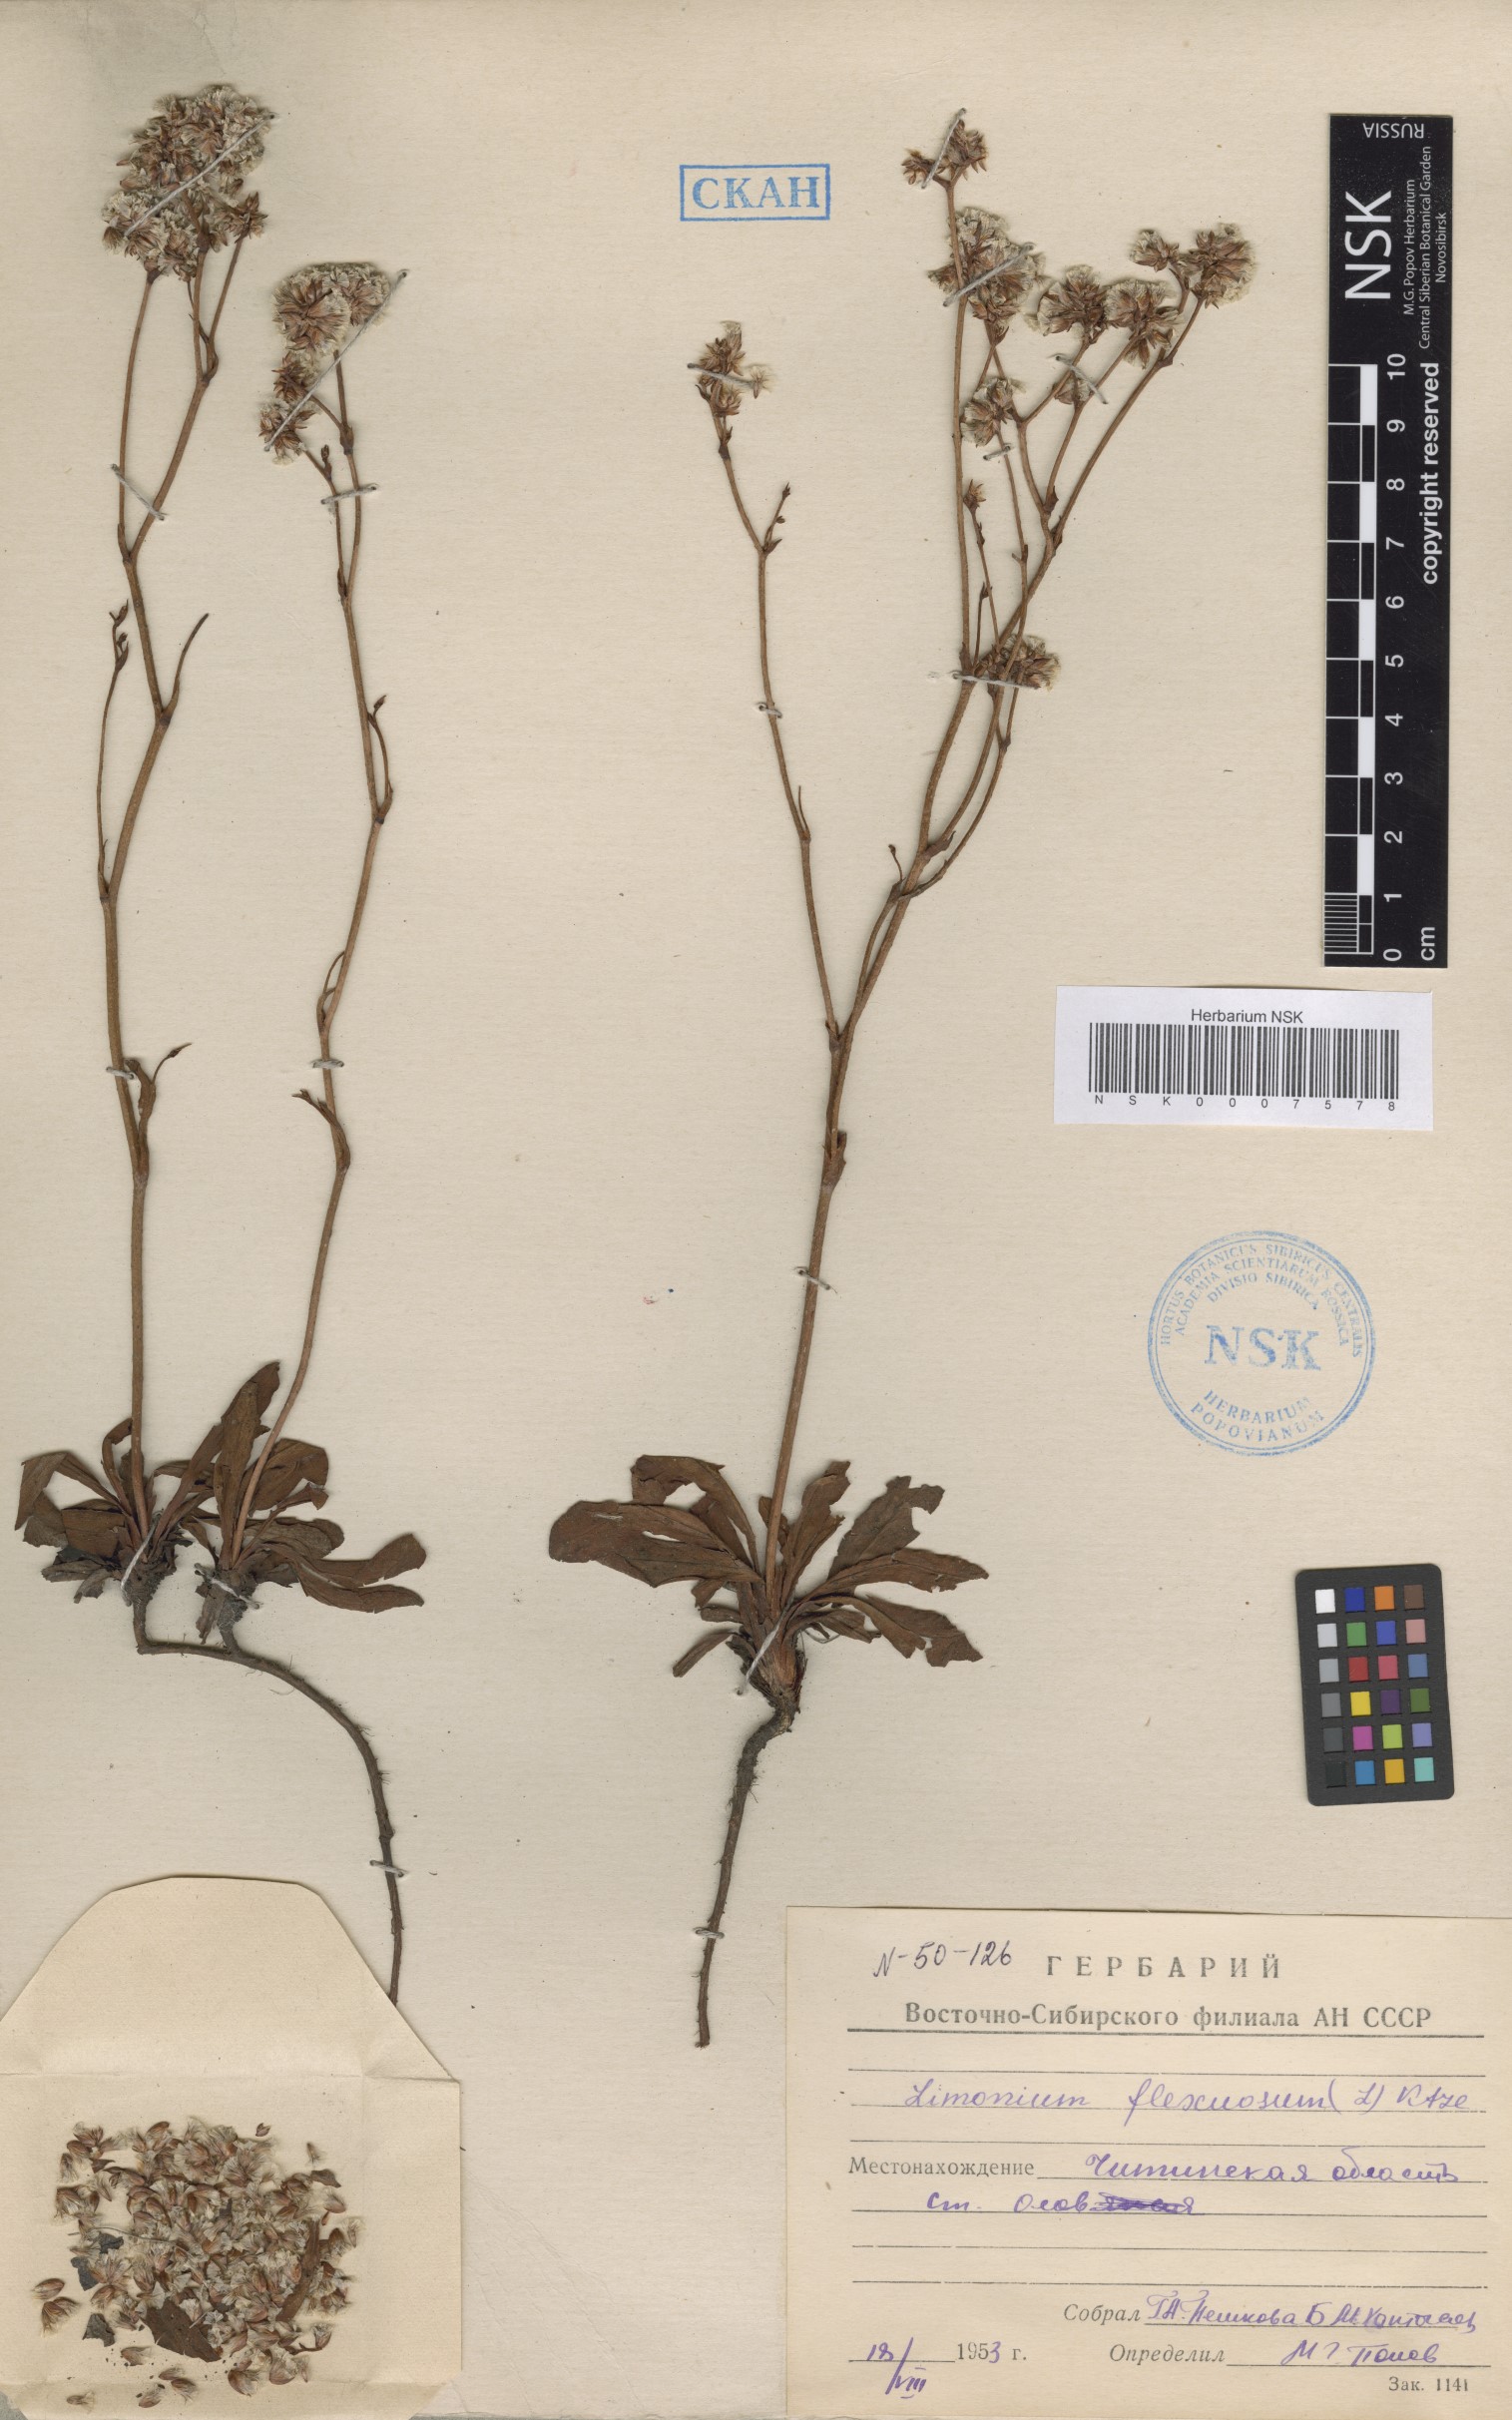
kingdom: Plantae
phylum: Tracheophyta
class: Magnoliopsida
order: Caryophyllales
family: Plumbaginaceae
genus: Limonium
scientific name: Limonium flexuosum
